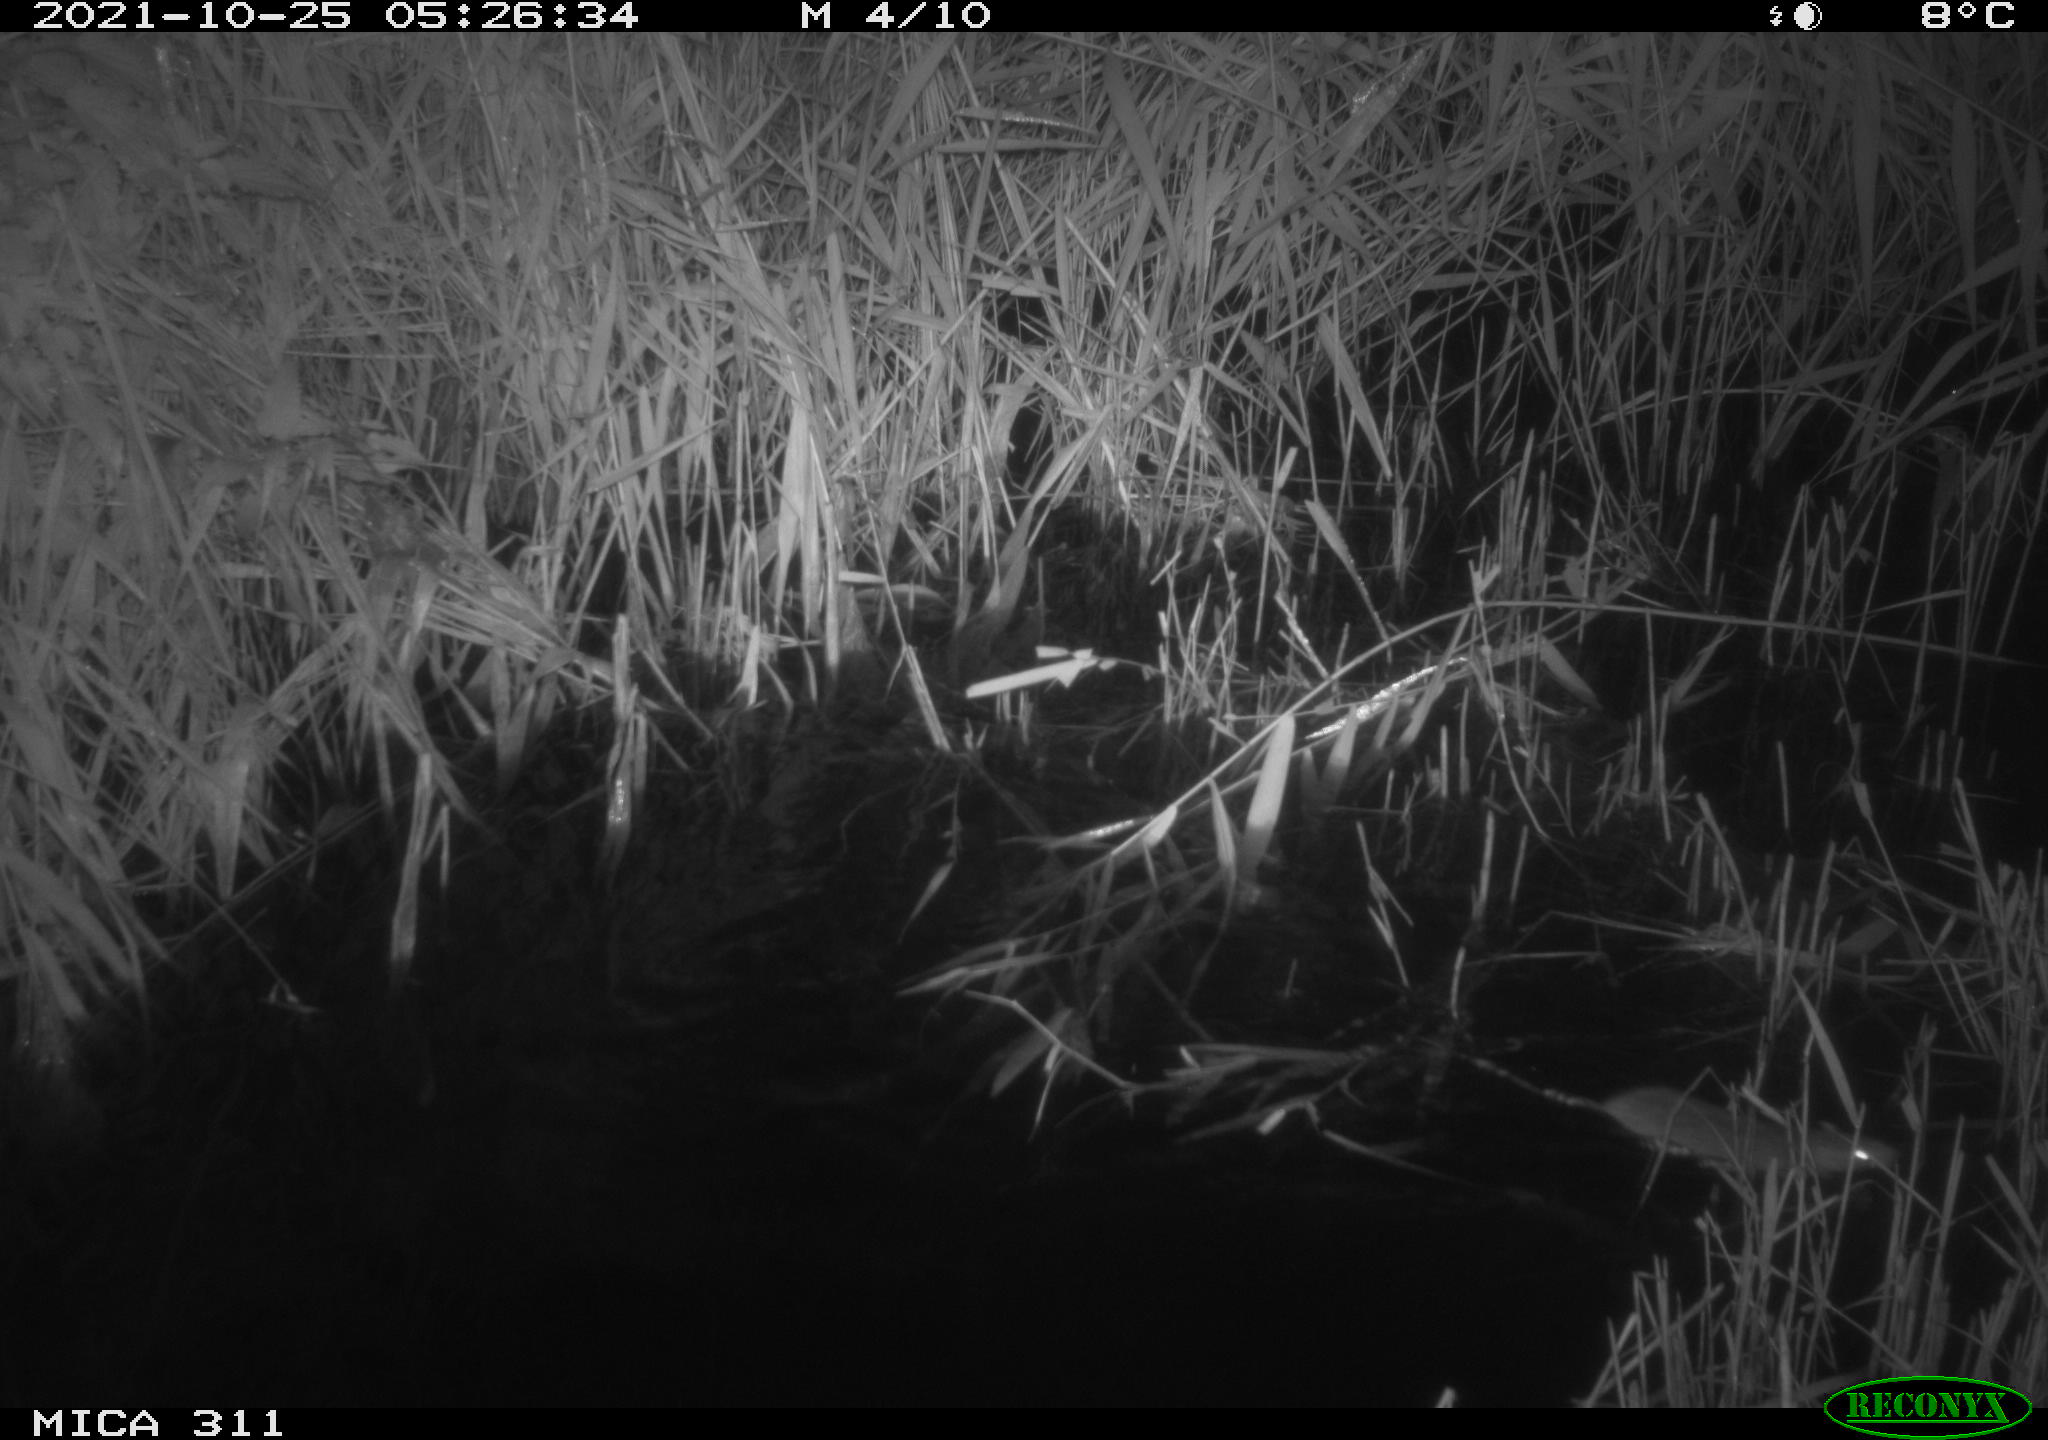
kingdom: Animalia
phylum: Chordata
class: Mammalia
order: Rodentia
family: Muridae
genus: Rattus
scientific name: Rattus norvegicus
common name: Brown rat
